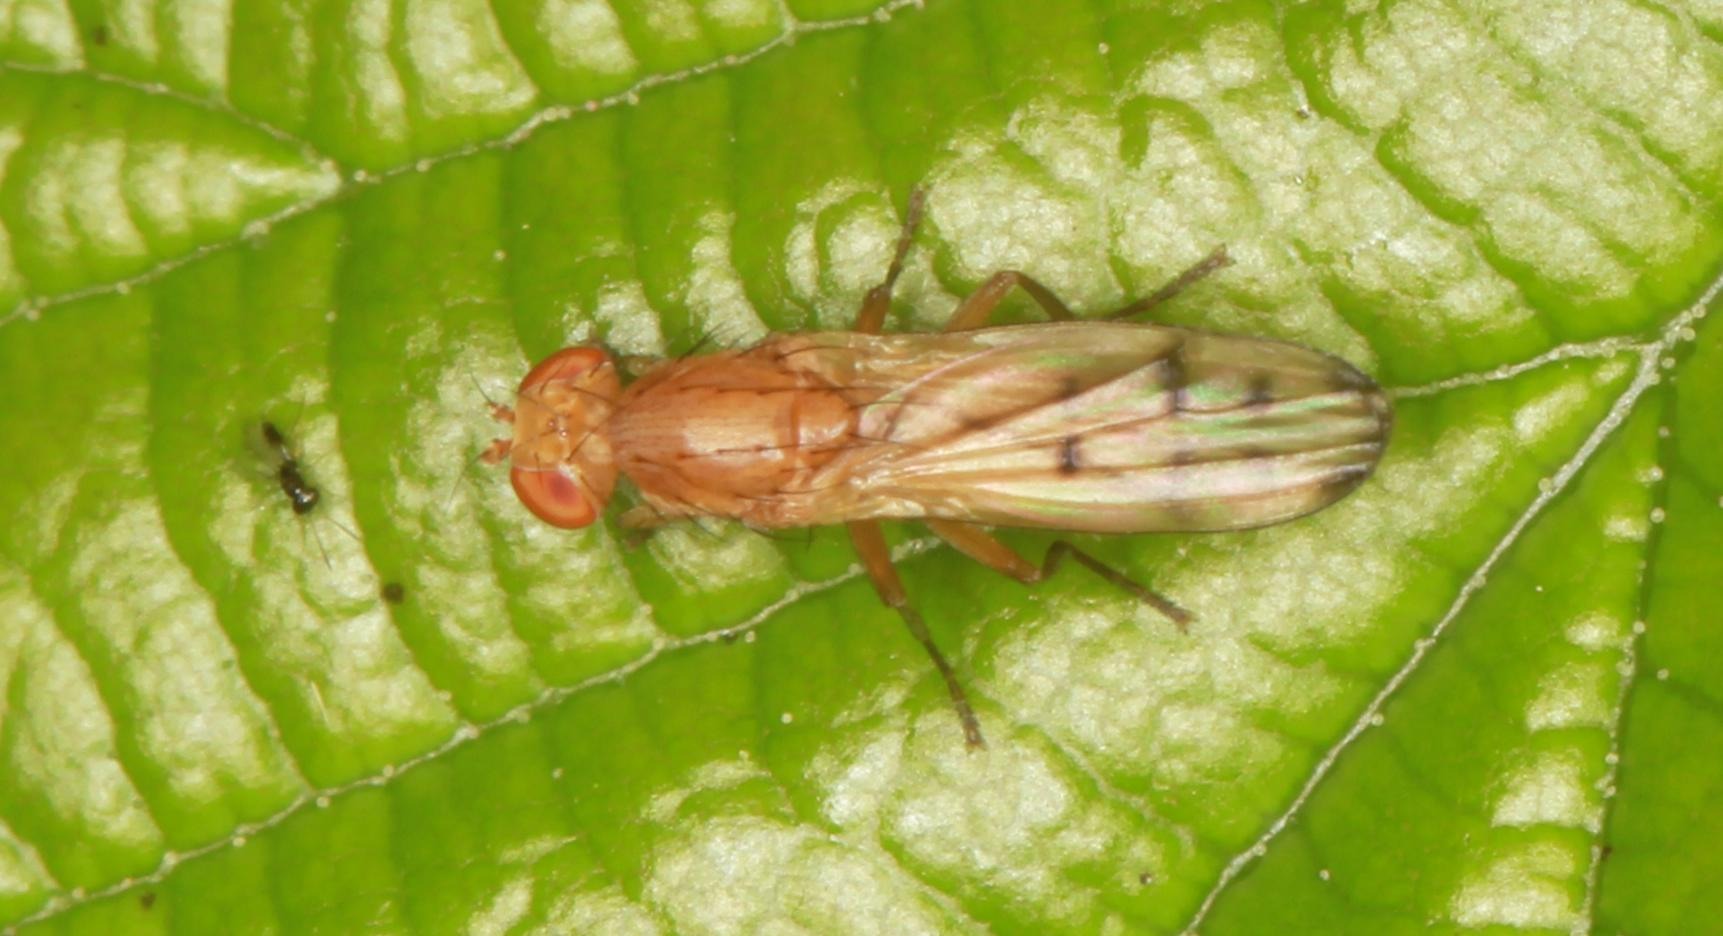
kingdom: Animalia
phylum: Arthropoda
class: Insecta
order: Diptera
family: Opomyzidae
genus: Opomyza
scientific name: Opomyza florum
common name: Gul græsflue
